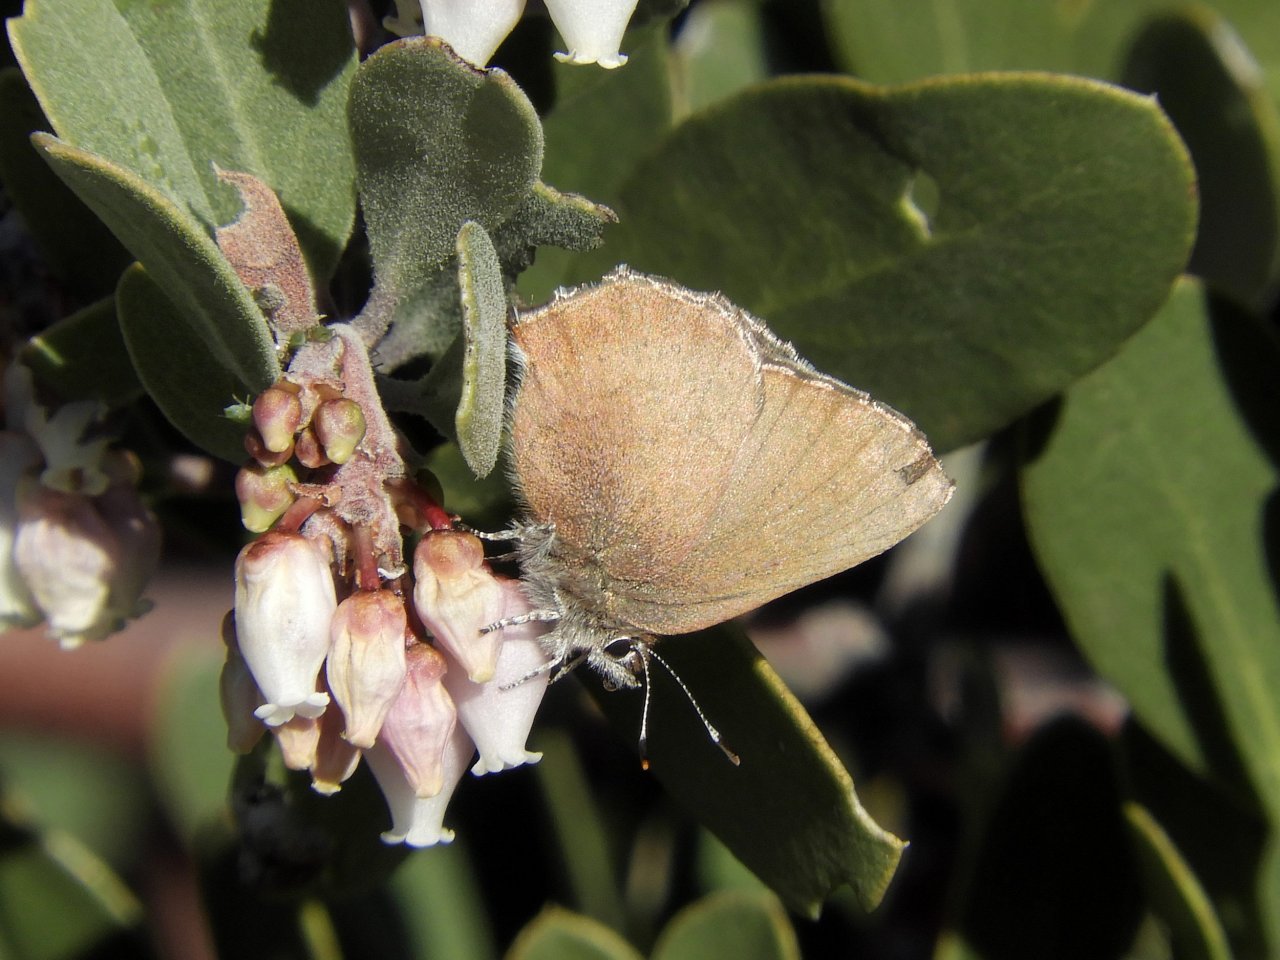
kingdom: Animalia
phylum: Arthropoda
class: Insecta
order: Lepidoptera
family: Lycaenidae
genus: Incisalia
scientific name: Incisalia irioides
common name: Brown Elfin
